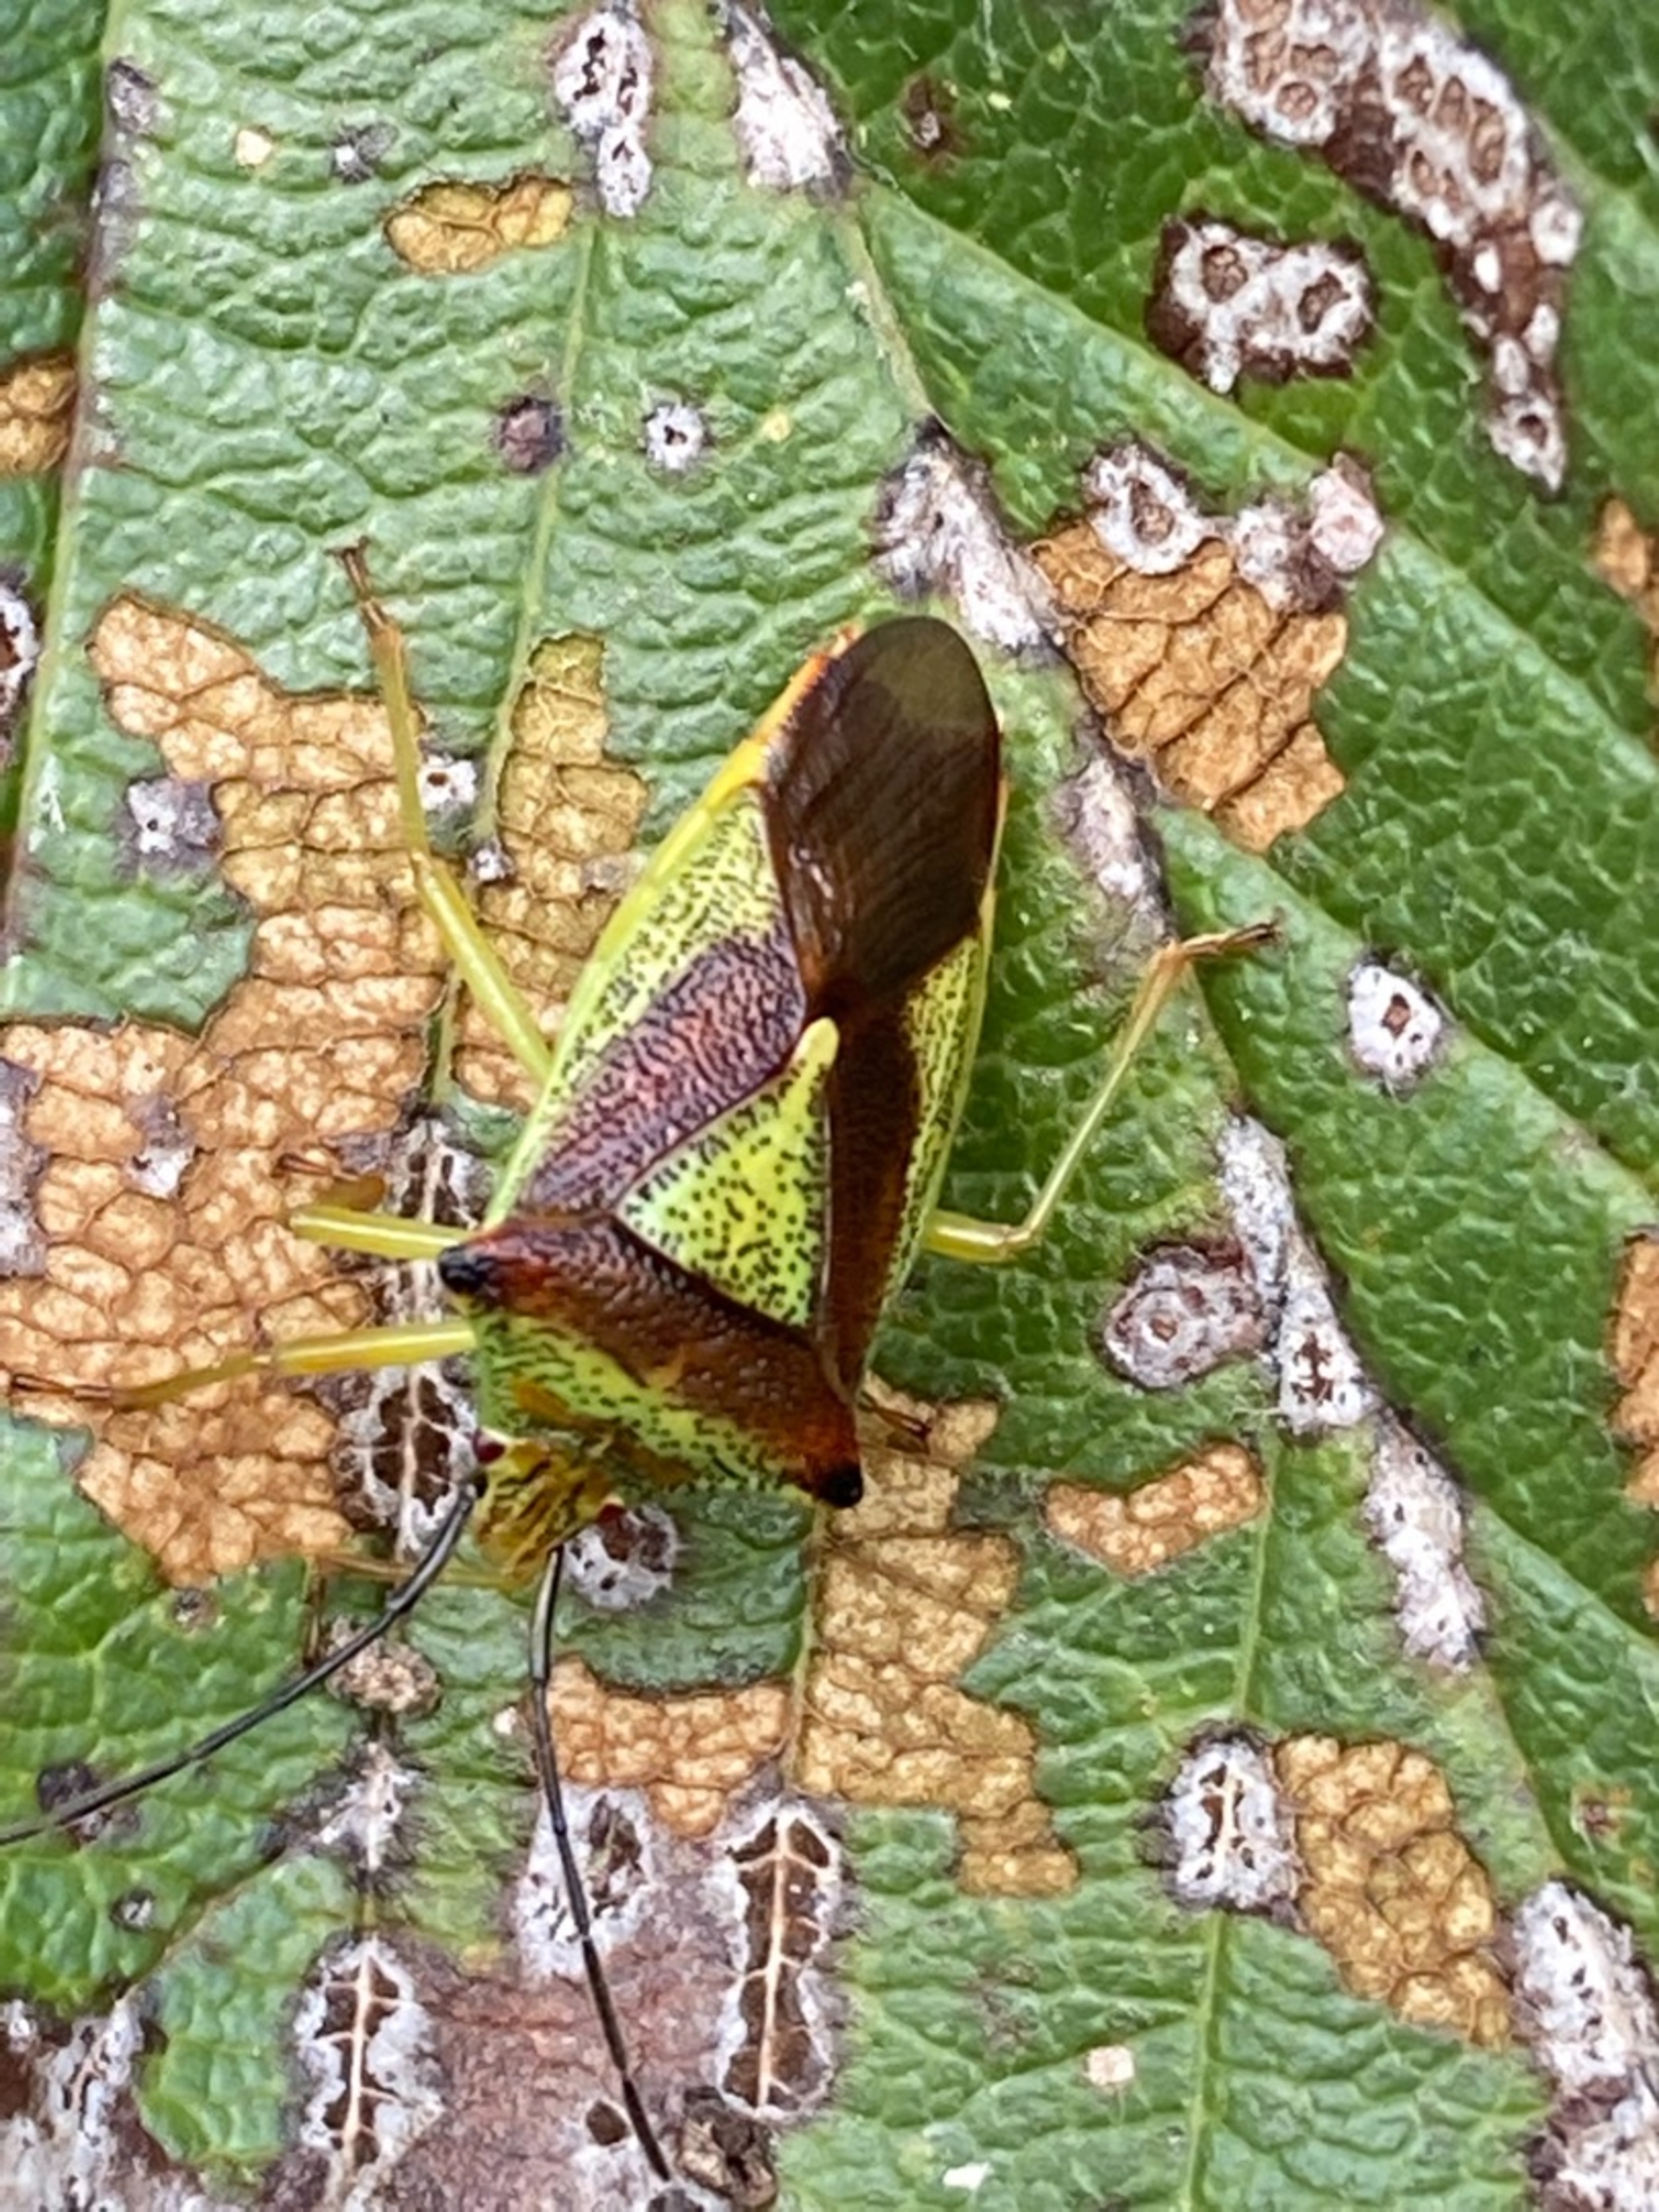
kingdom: Animalia
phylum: Arthropoda
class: Insecta
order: Hemiptera
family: Acanthosomatidae
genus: Acanthosoma
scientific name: Acanthosoma haemorrhoidale
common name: Stor løvtæge
